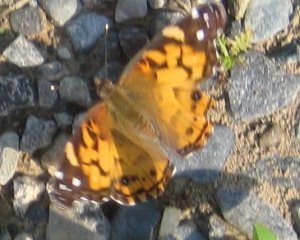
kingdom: Animalia
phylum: Arthropoda
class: Insecta
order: Lepidoptera
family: Nymphalidae
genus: Vanessa
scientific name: Vanessa virginiensis
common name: American Lady
